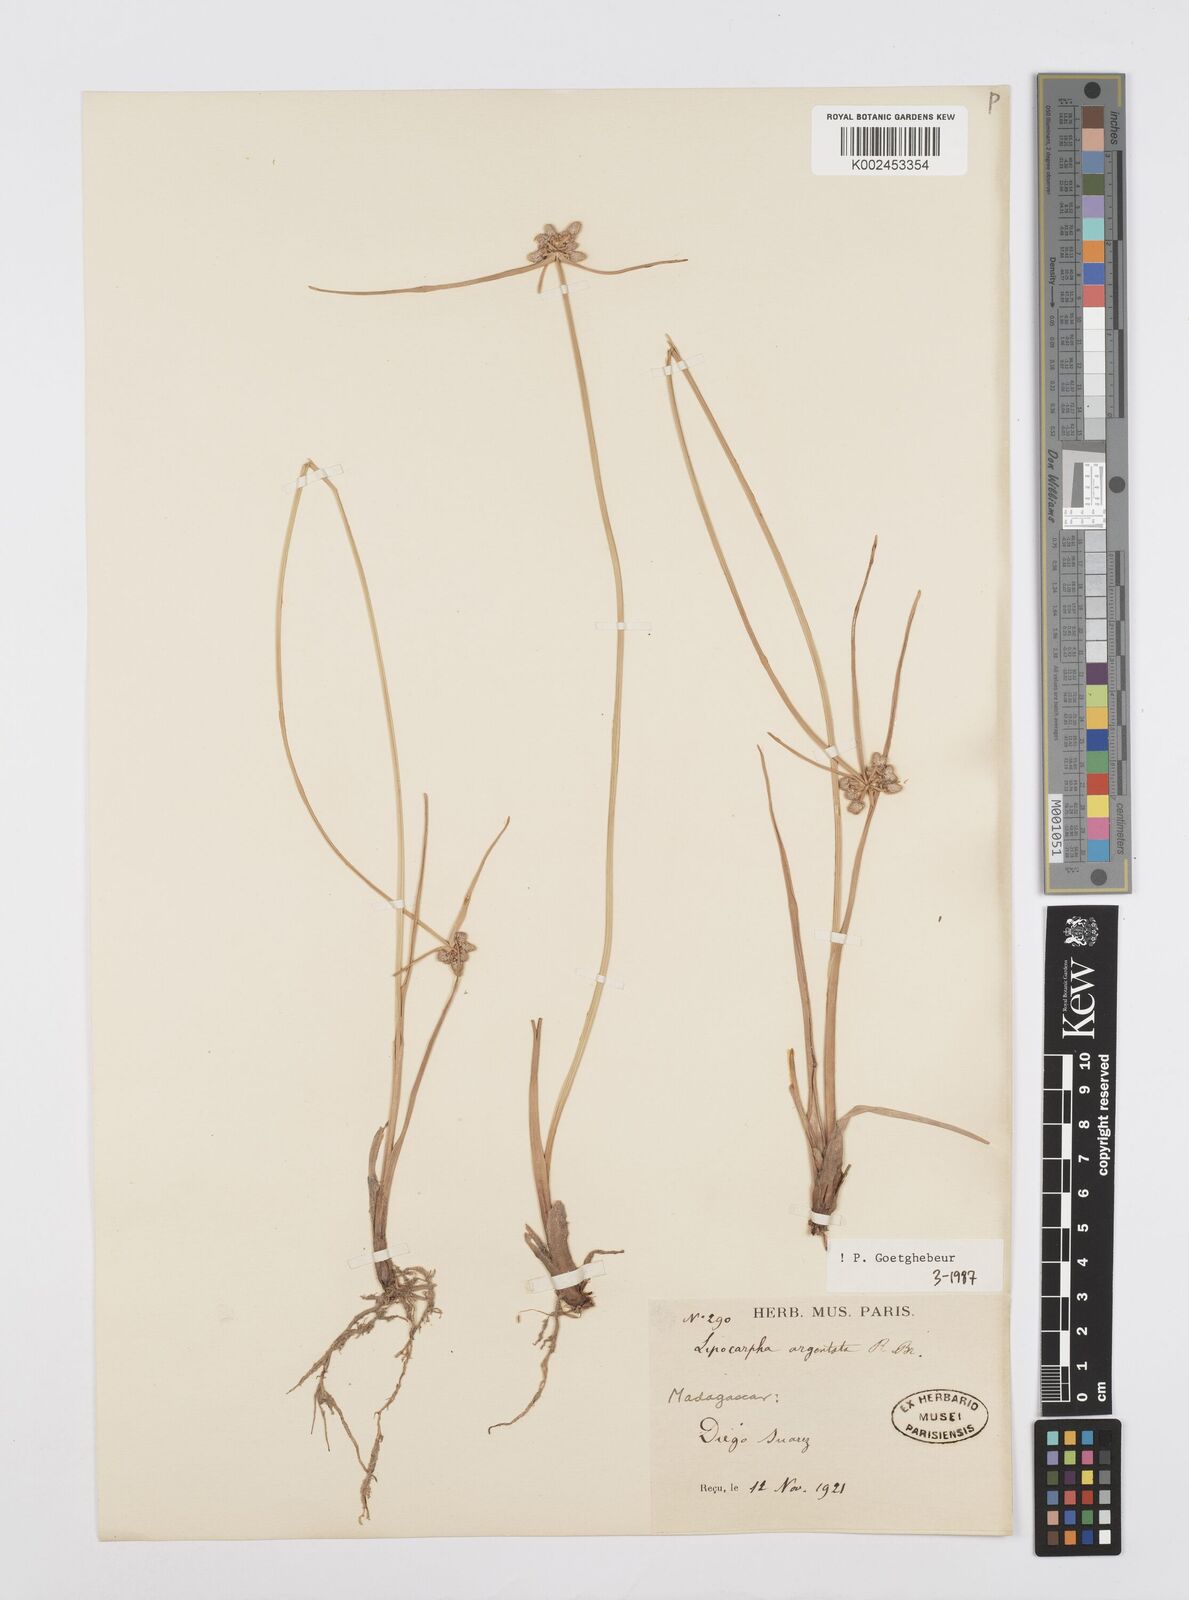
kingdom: Plantae
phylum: Tracheophyta
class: Liliopsida
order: Poales
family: Cyperaceae
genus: Cyperus
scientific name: Cyperus
